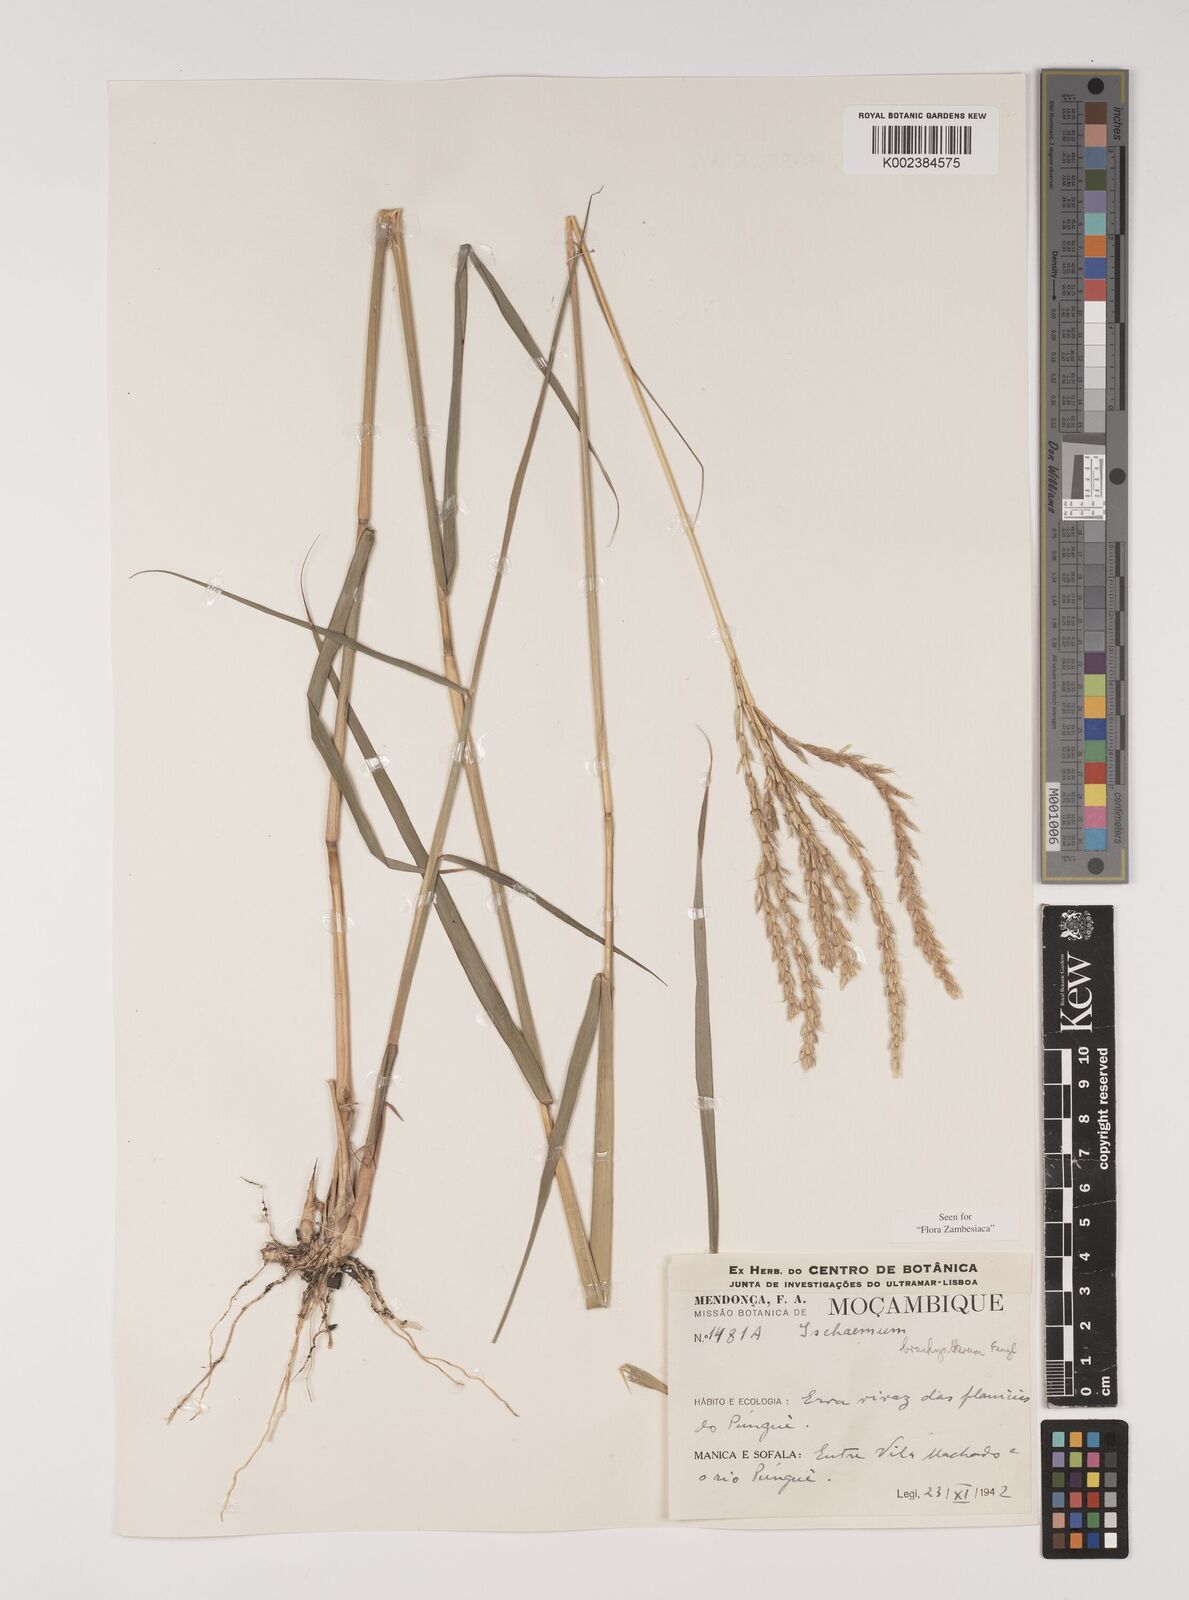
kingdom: Plantae
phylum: Tracheophyta
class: Liliopsida
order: Poales
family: Poaceae
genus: Ischaemum
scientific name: Ischaemum afrum
